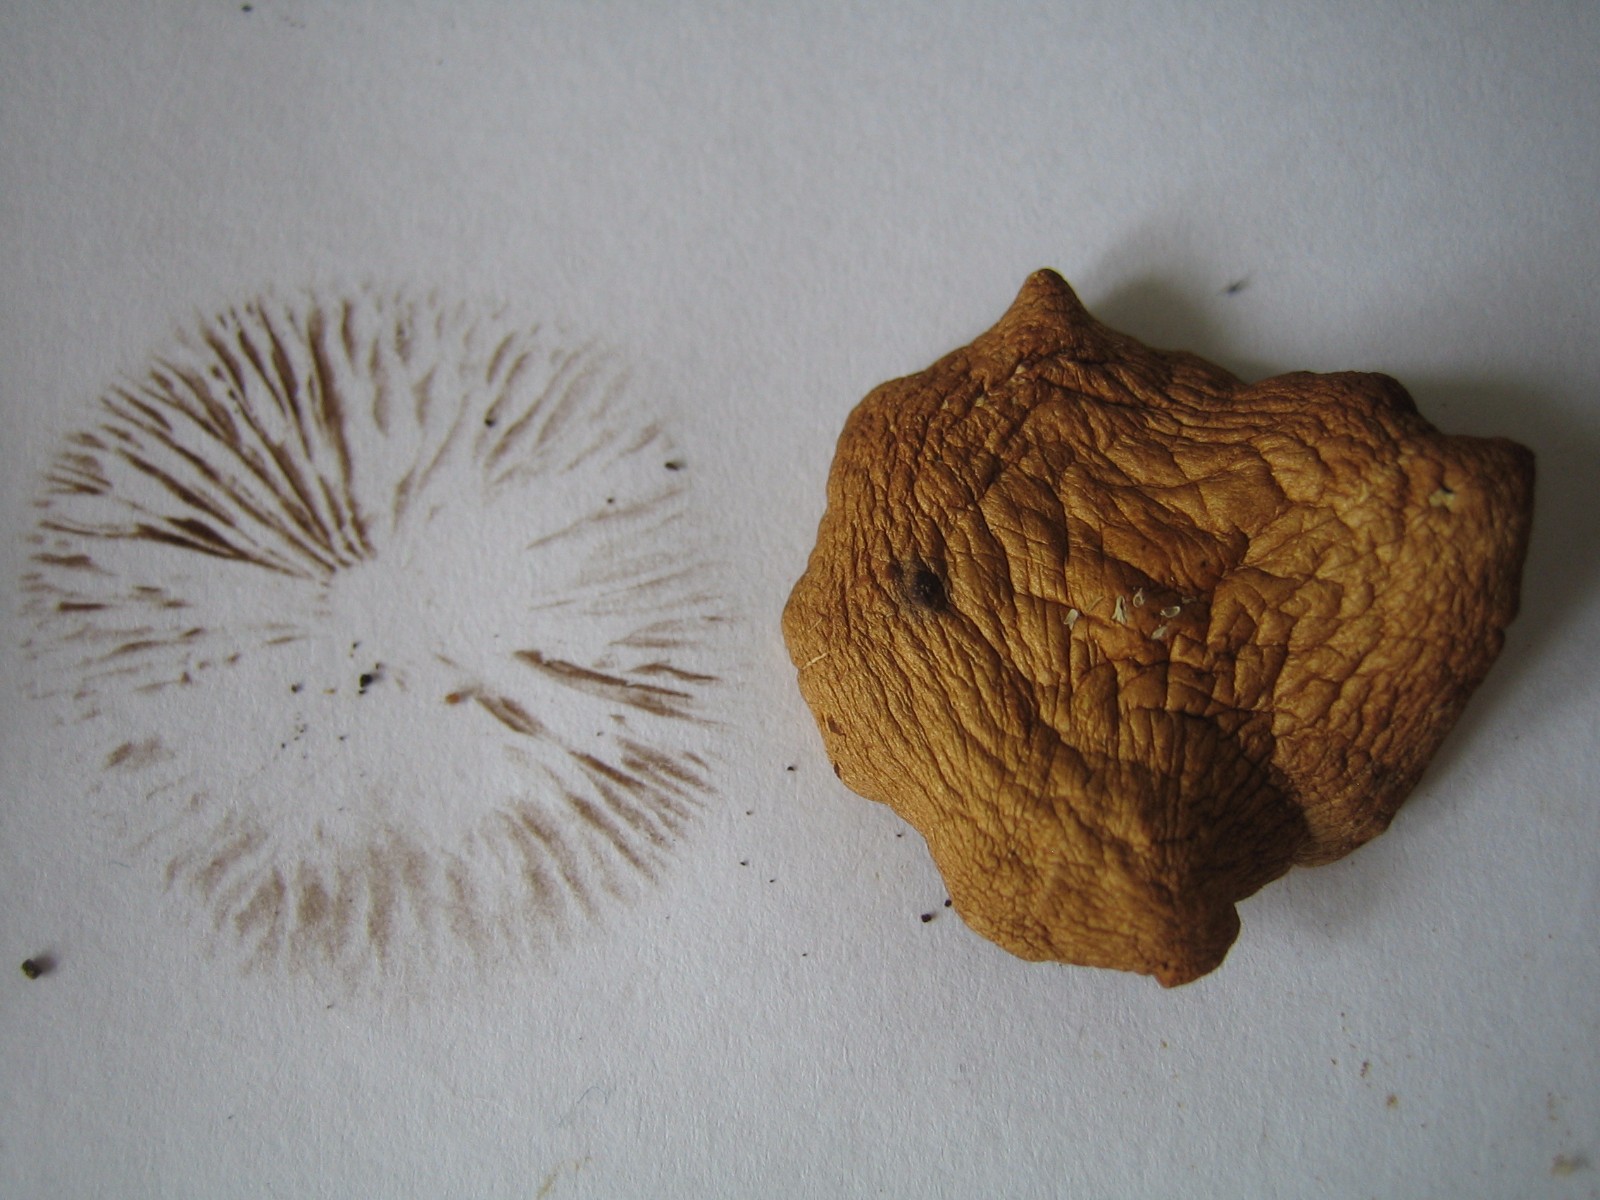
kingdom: Fungi
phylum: Basidiomycota
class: Agaricomycetes
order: Agaricales
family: Strophariaceae
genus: Agrocybe
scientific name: Agrocybe
